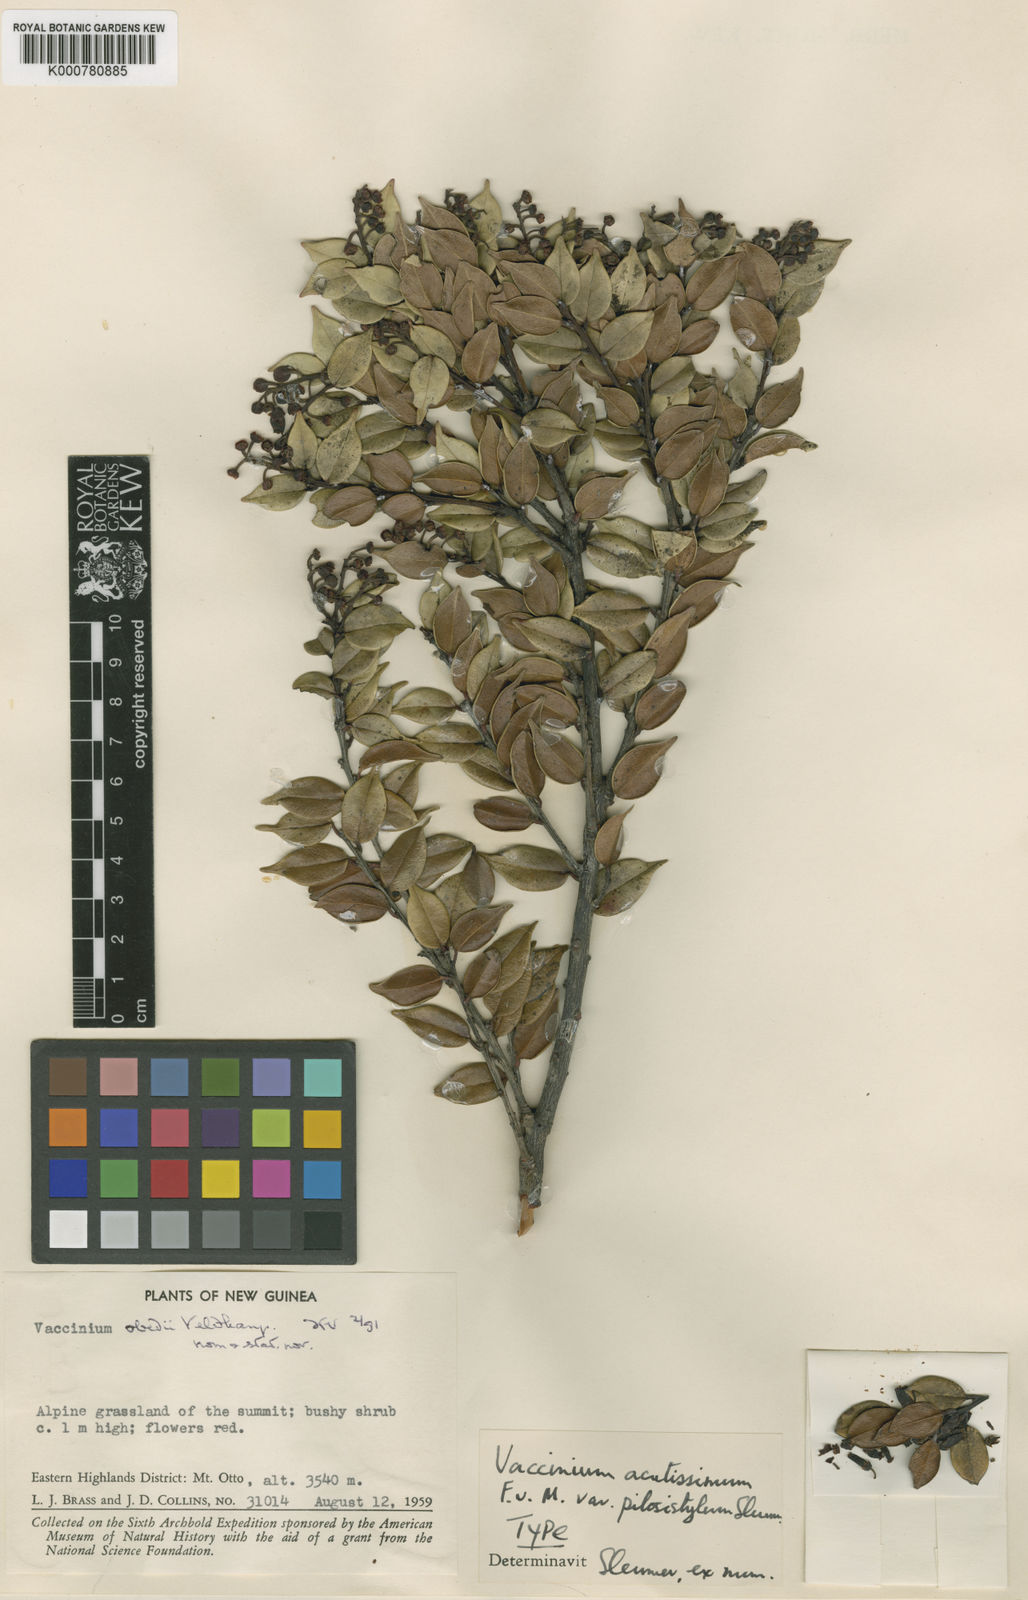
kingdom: Plantae
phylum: Tracheophyta
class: Magnoliopsida
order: Ericales
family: Ericaceae
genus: Vaccinium
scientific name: Vaccinium obedii
